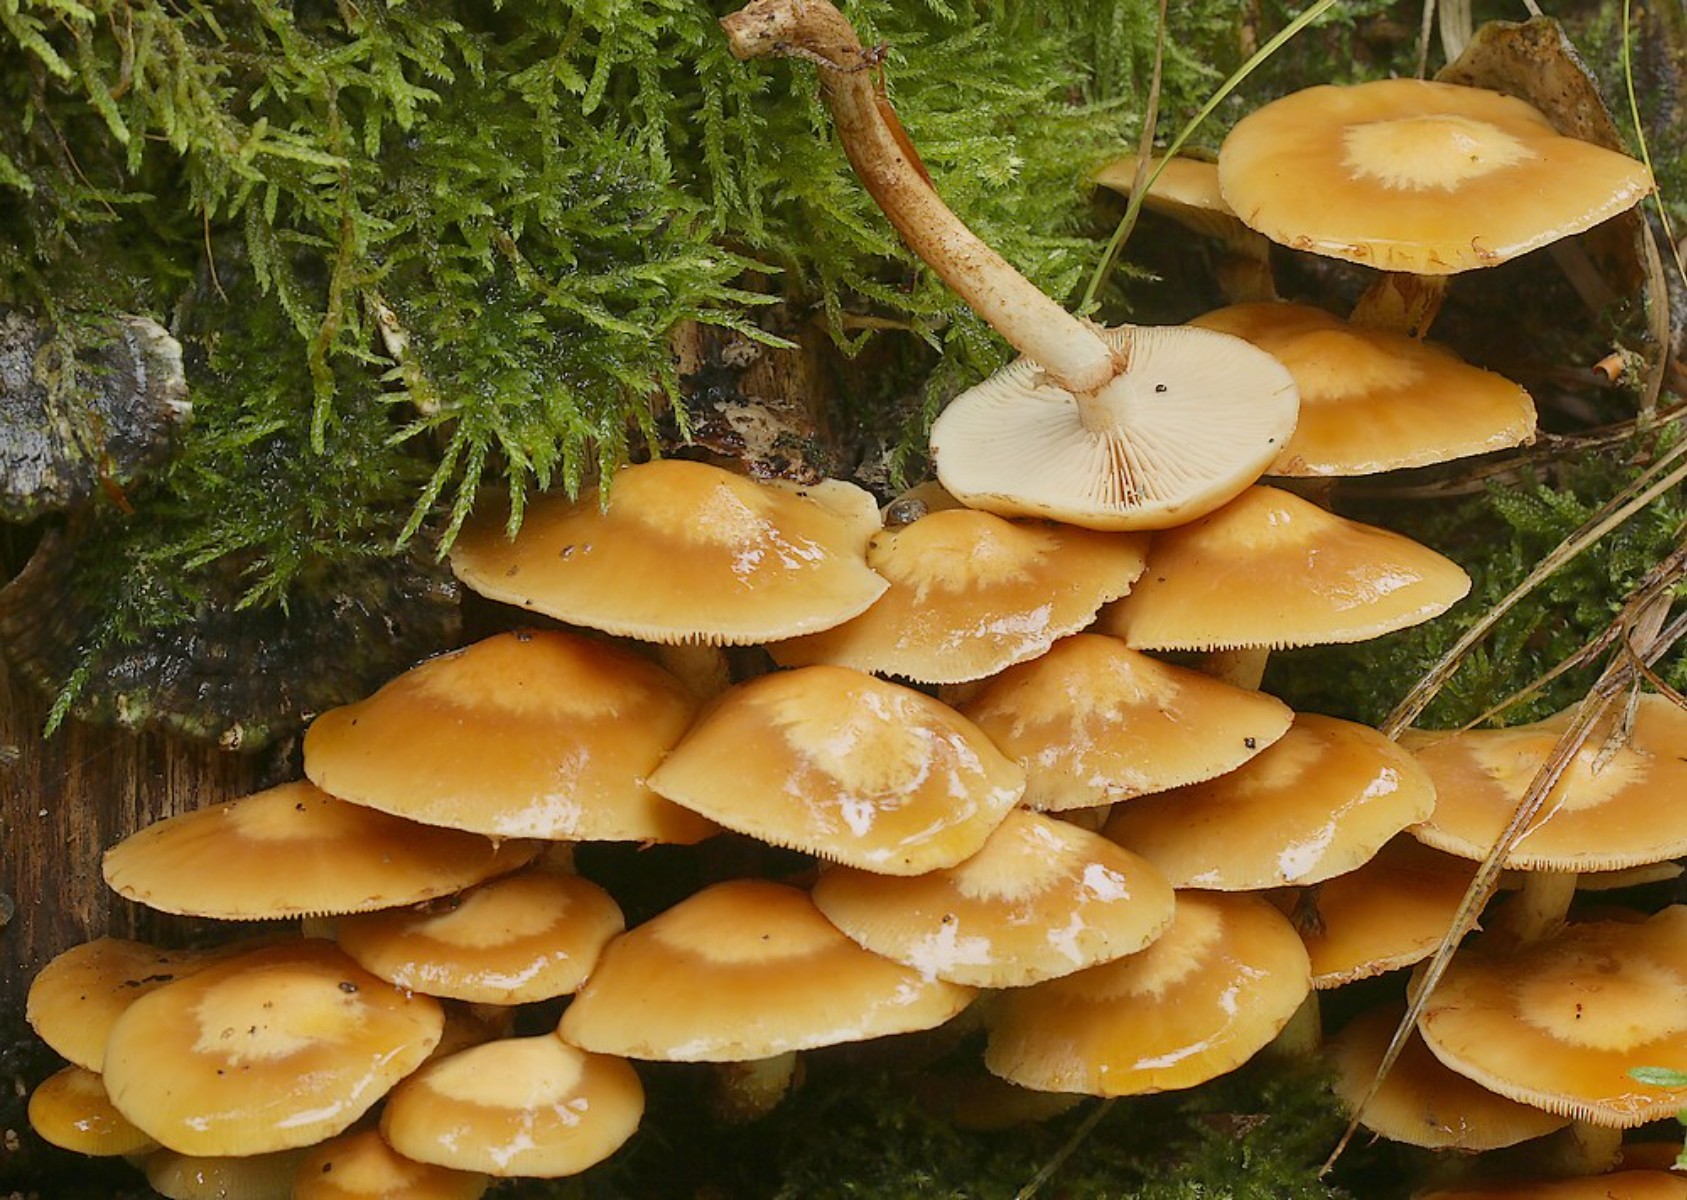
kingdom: Fungi
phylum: Basidiomycota
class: Agaricomycetes
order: Agaricales
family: Strophariaceae
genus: Kuehneromyces
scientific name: Kuehneromyces mutabilis
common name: foranderlig skælhat
